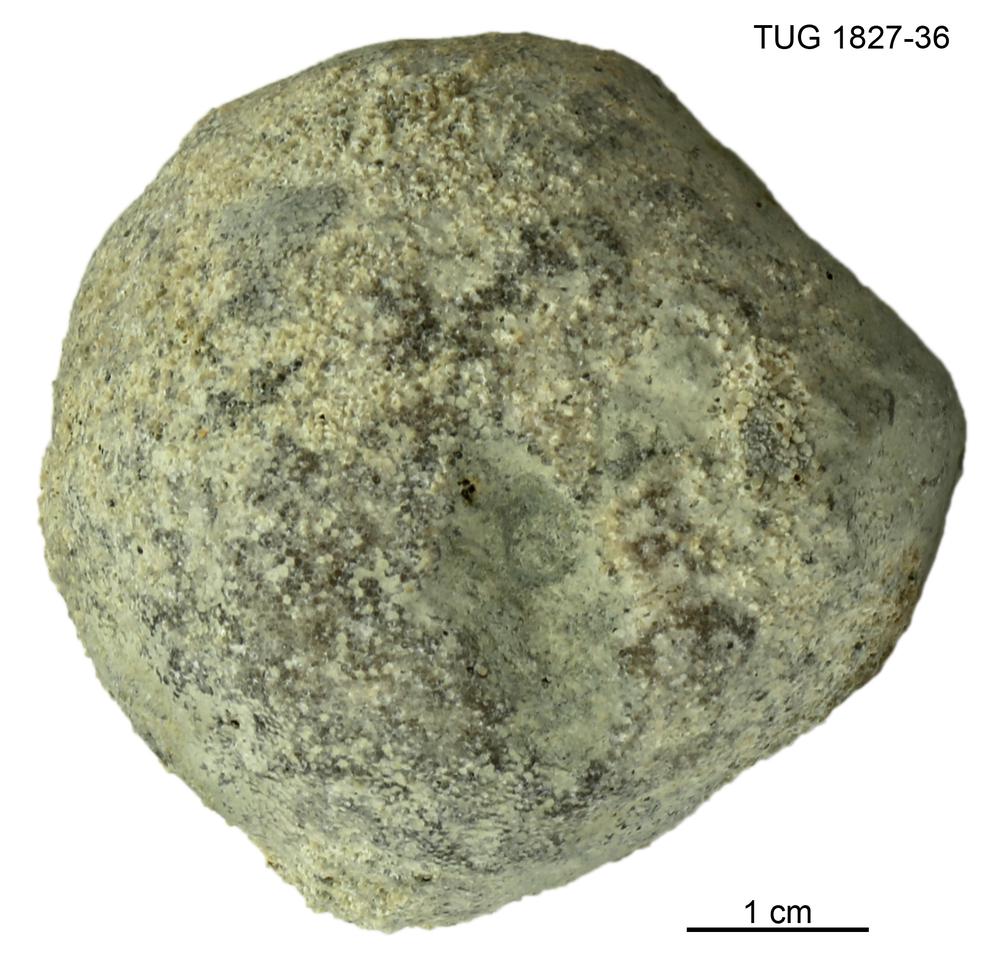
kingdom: Animalia
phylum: Bryozoa
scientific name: Bryozoa
